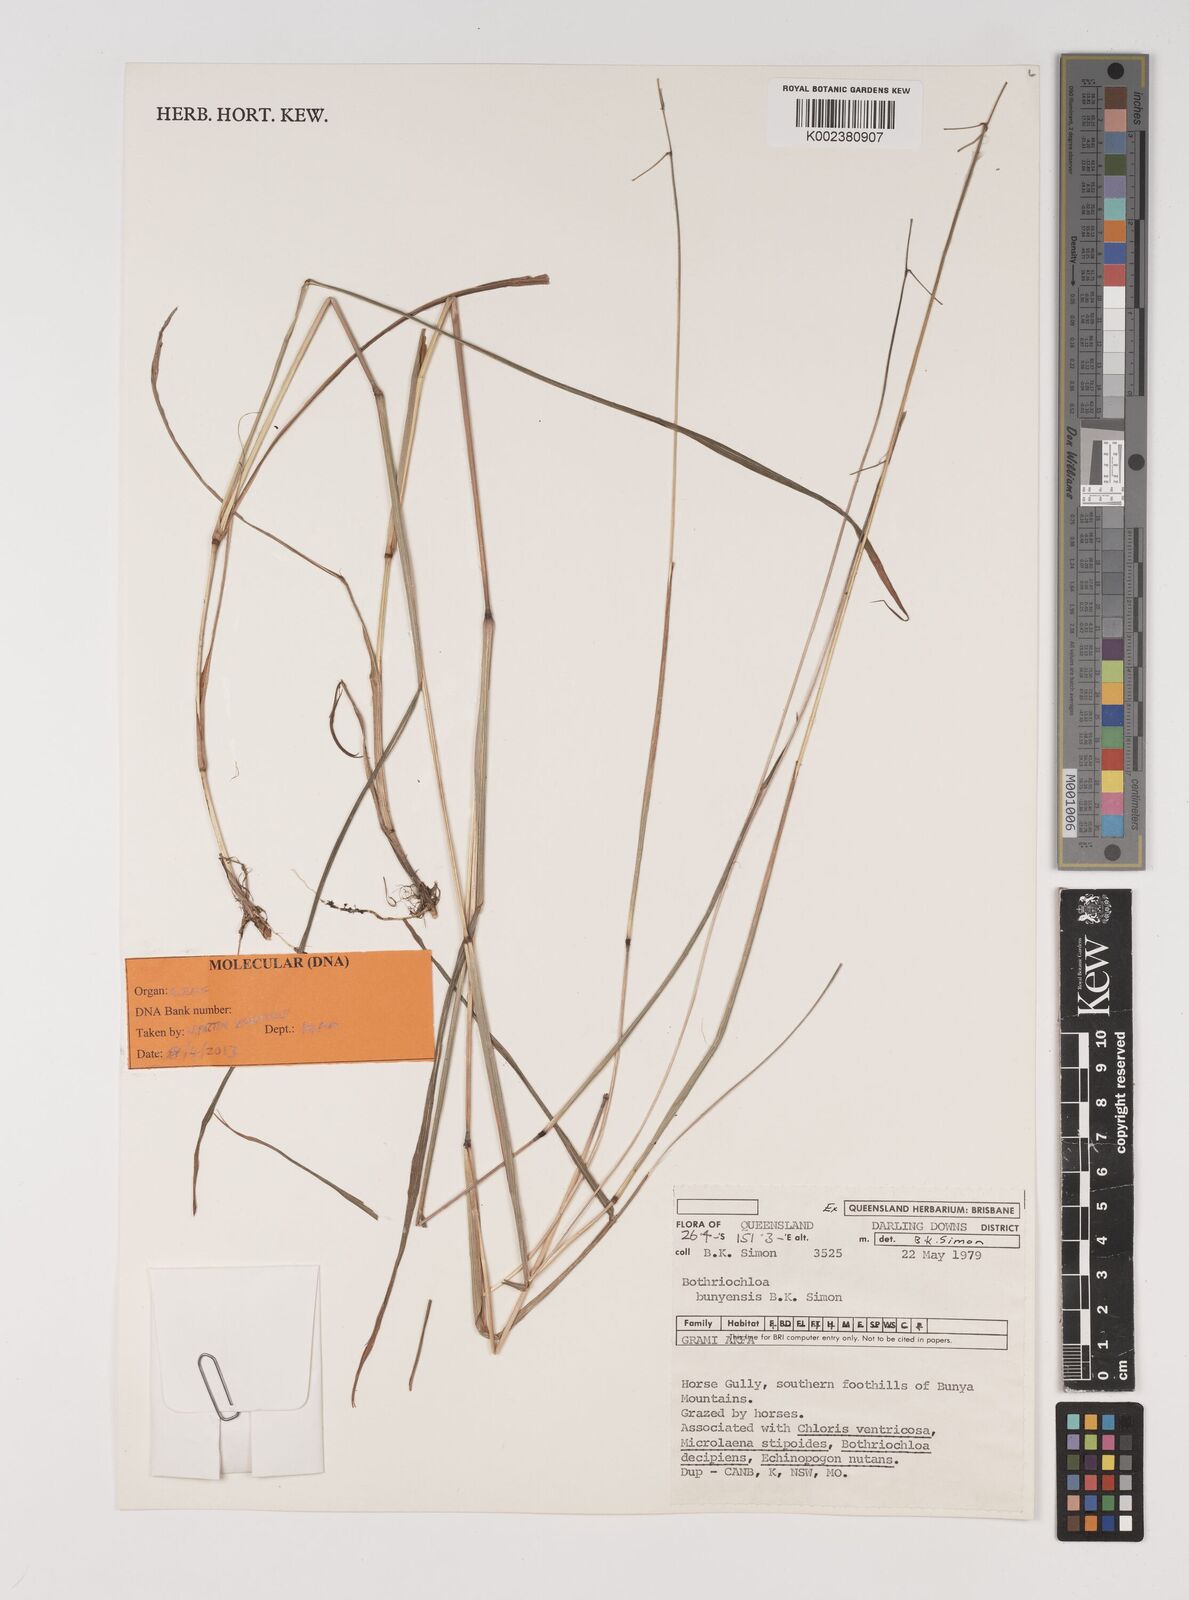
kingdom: Plantae
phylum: Tracheophyta
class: Liliopsida
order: Poales
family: Poaceae
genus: Bothriochloa
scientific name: Bothriochloa bunyensis
